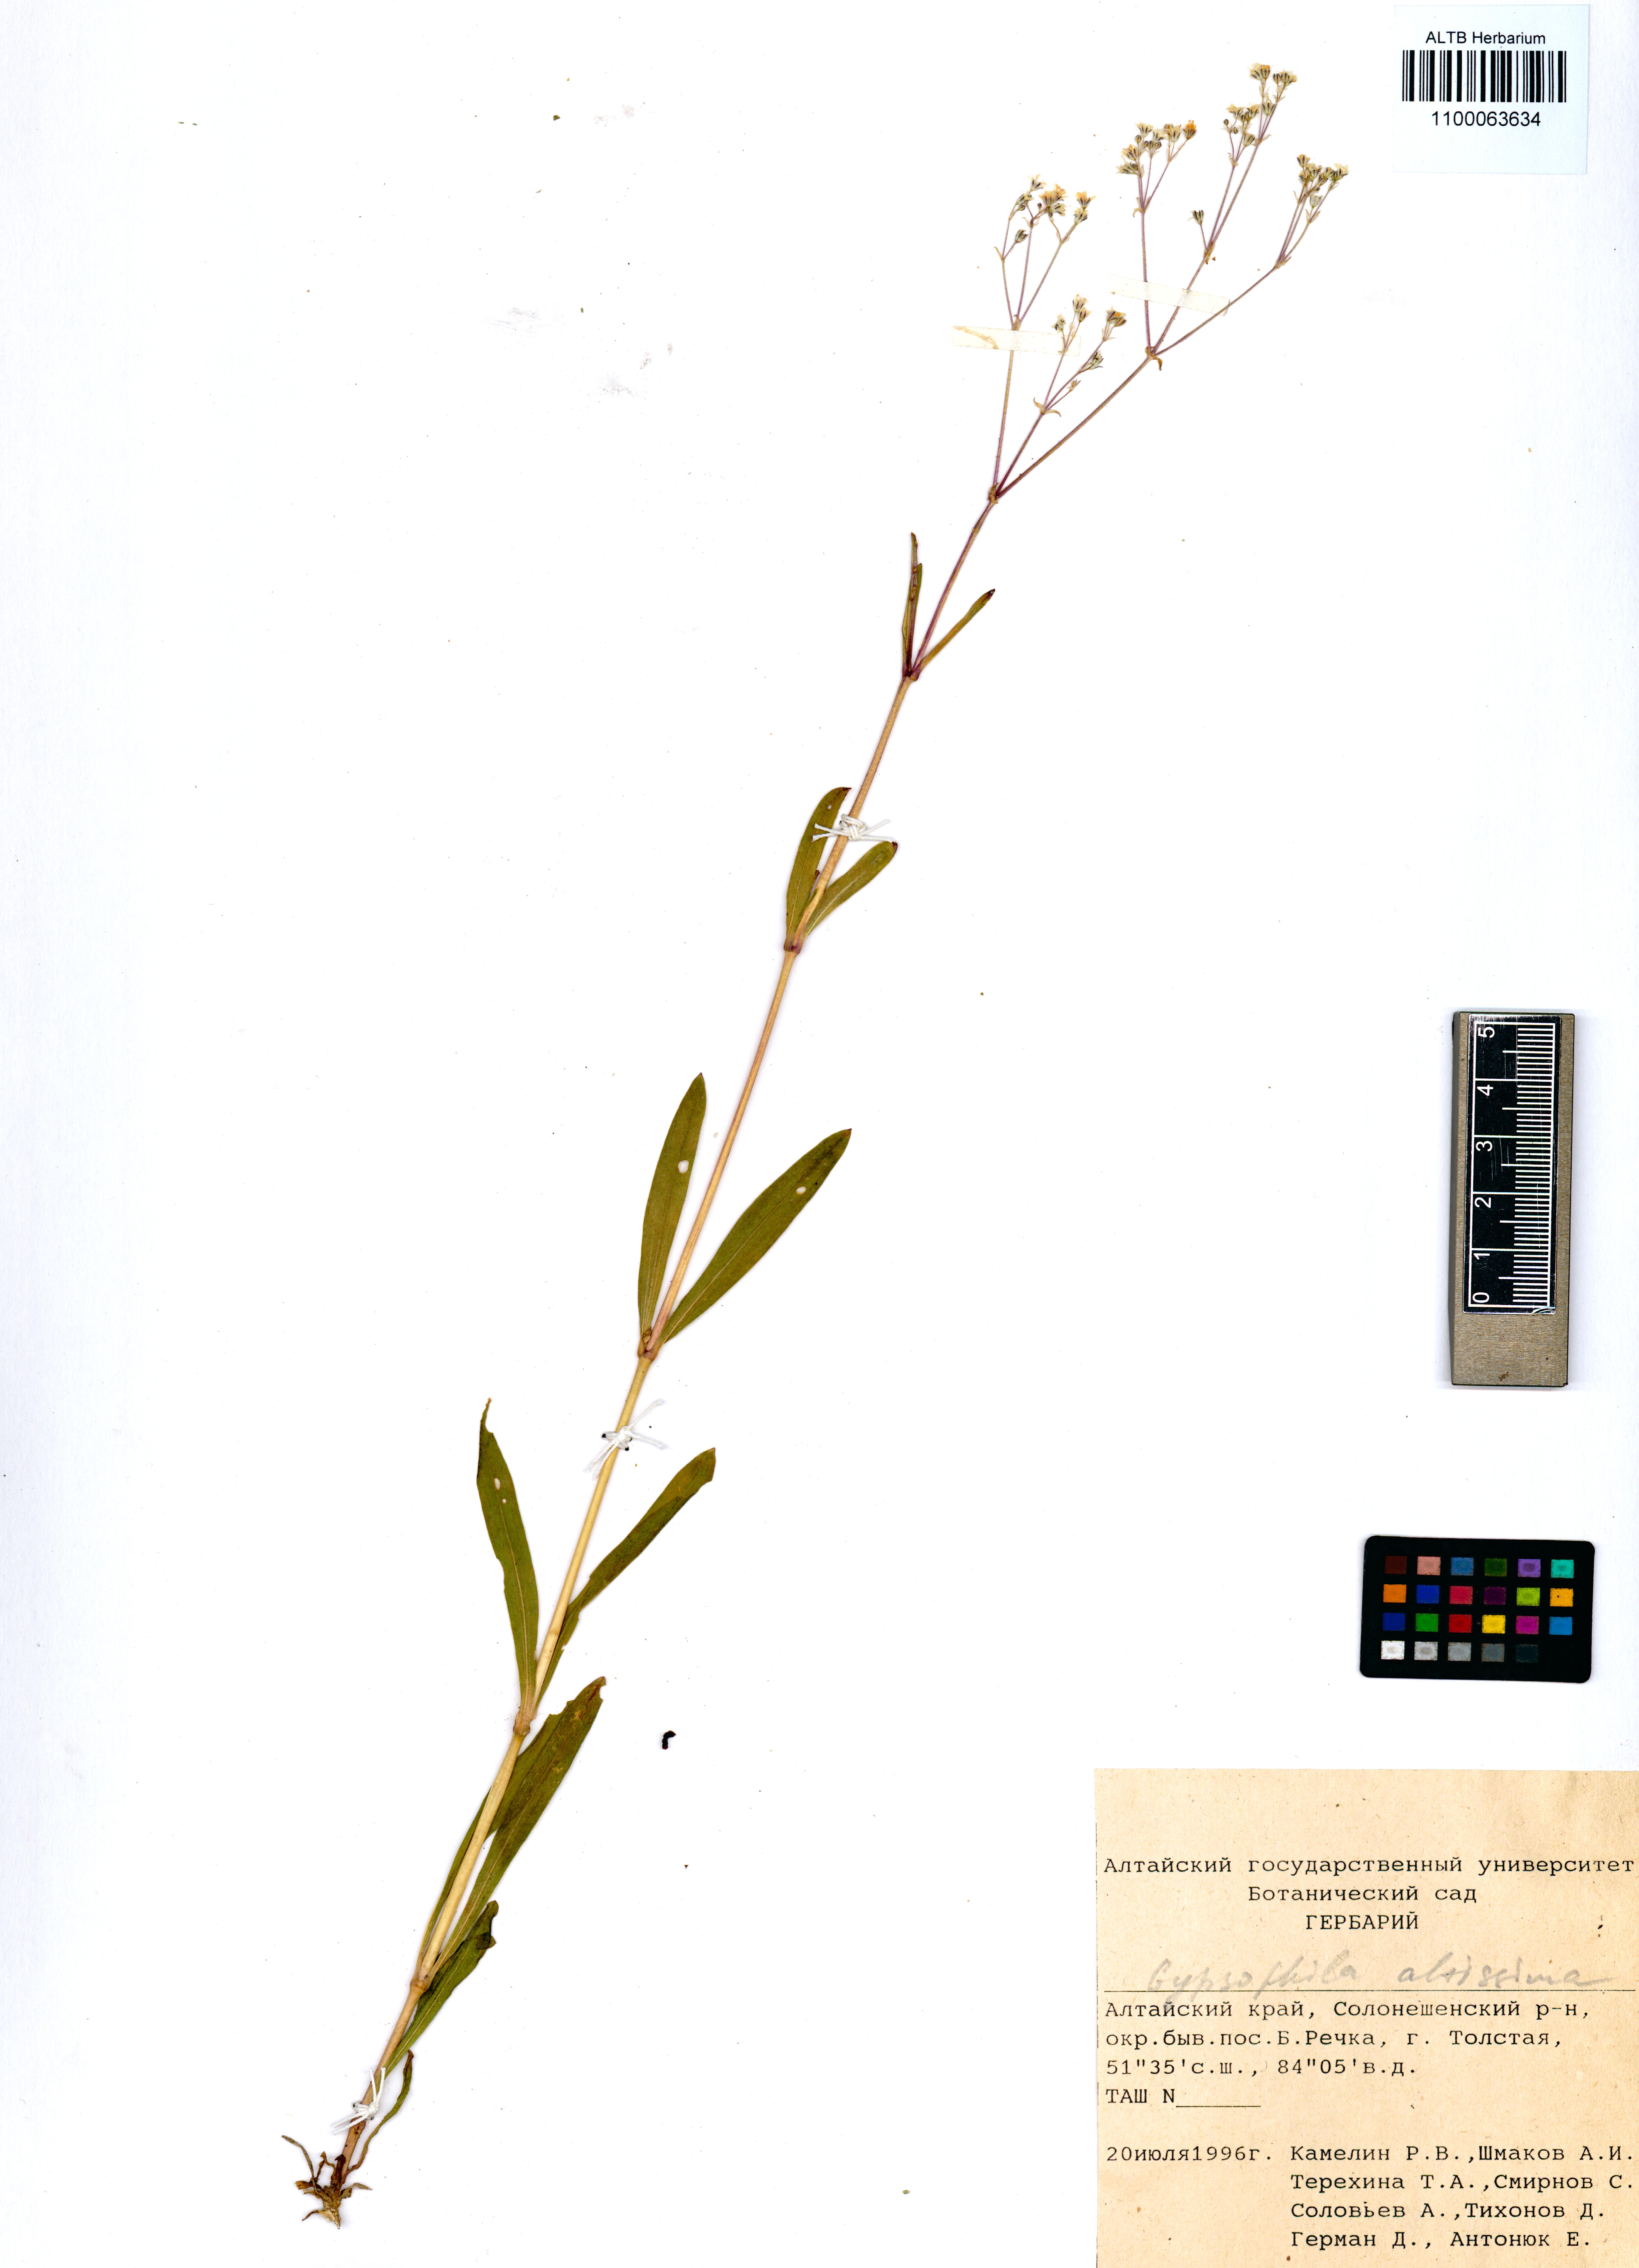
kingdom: Plantae
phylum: Tracheophyta
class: Magnoliopsida
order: Caryophyllales
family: Caryophyllaceae
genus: Gypsophila
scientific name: Gypsophila altissima
